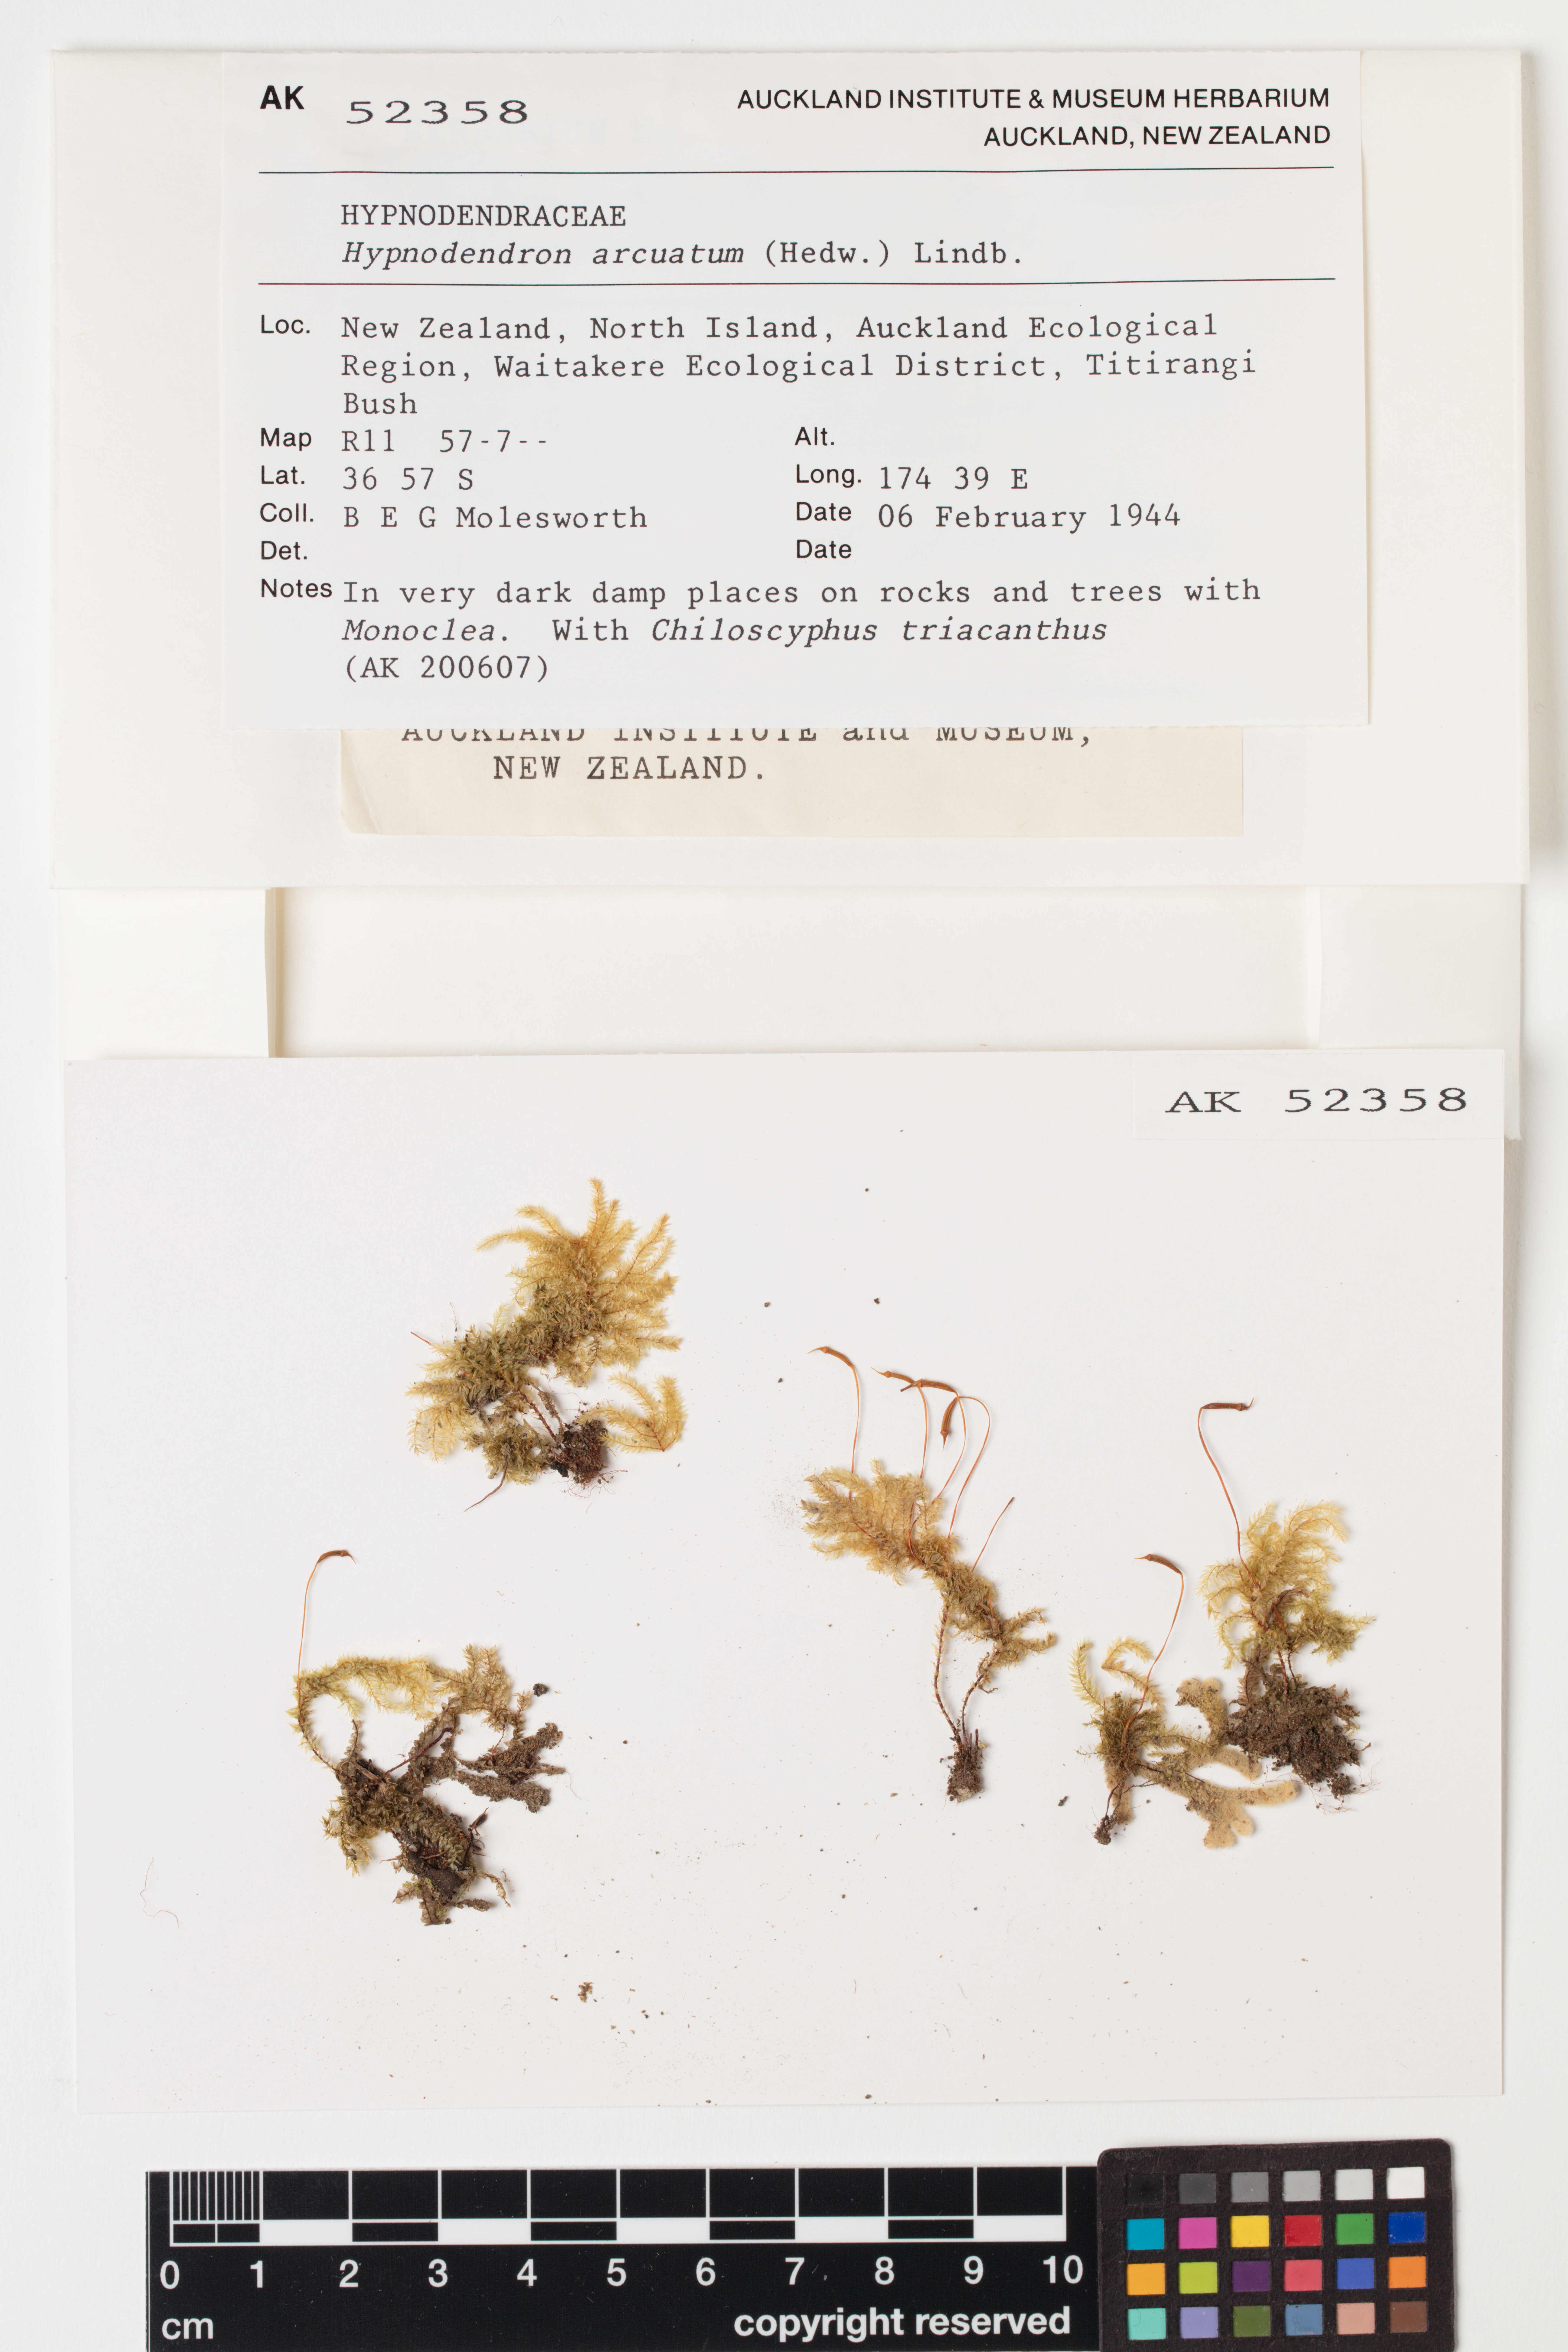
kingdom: Plantae
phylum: Bryophyta
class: Bryopsida
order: Hypnodendrales
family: Spiridentaceae
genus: Hypnodendron
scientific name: Hypnodendron arcuatum
